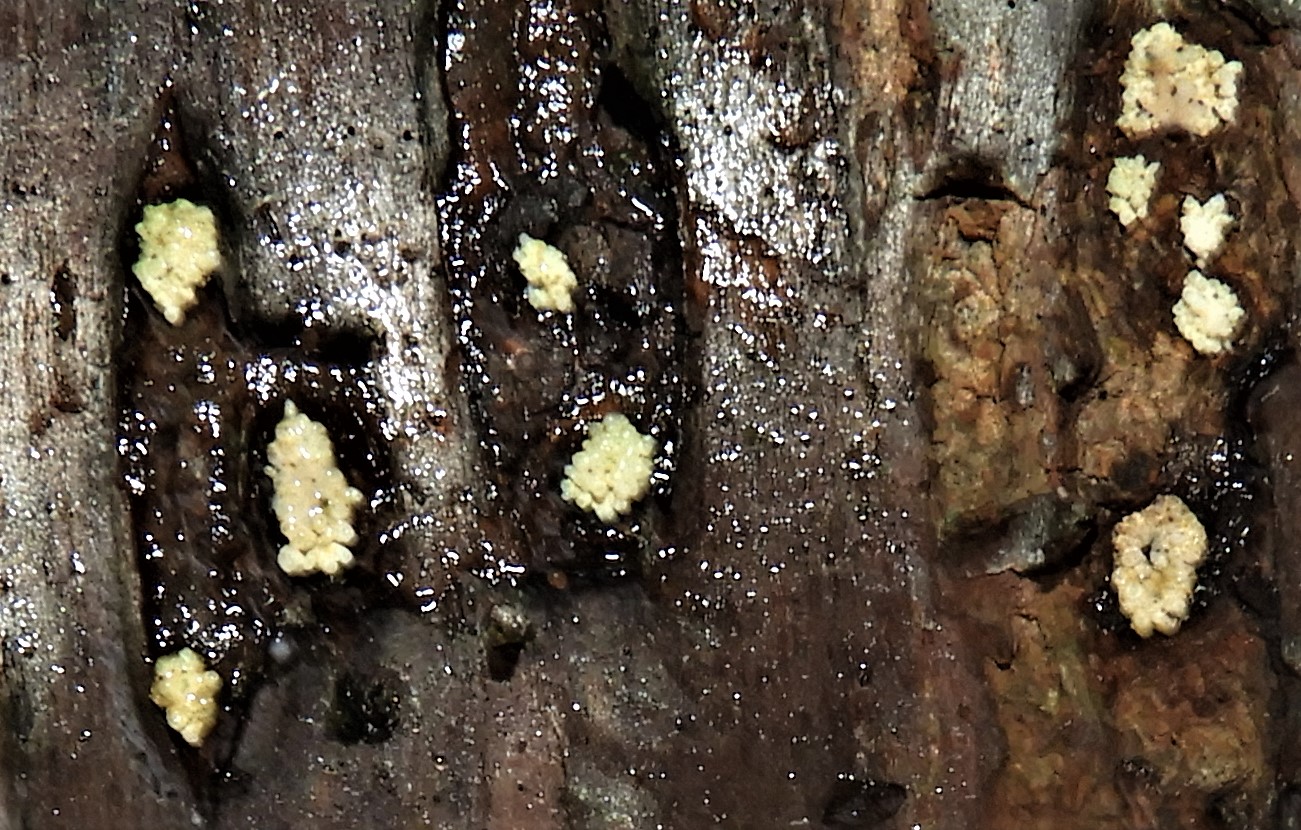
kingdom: Fungi
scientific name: Fungi
